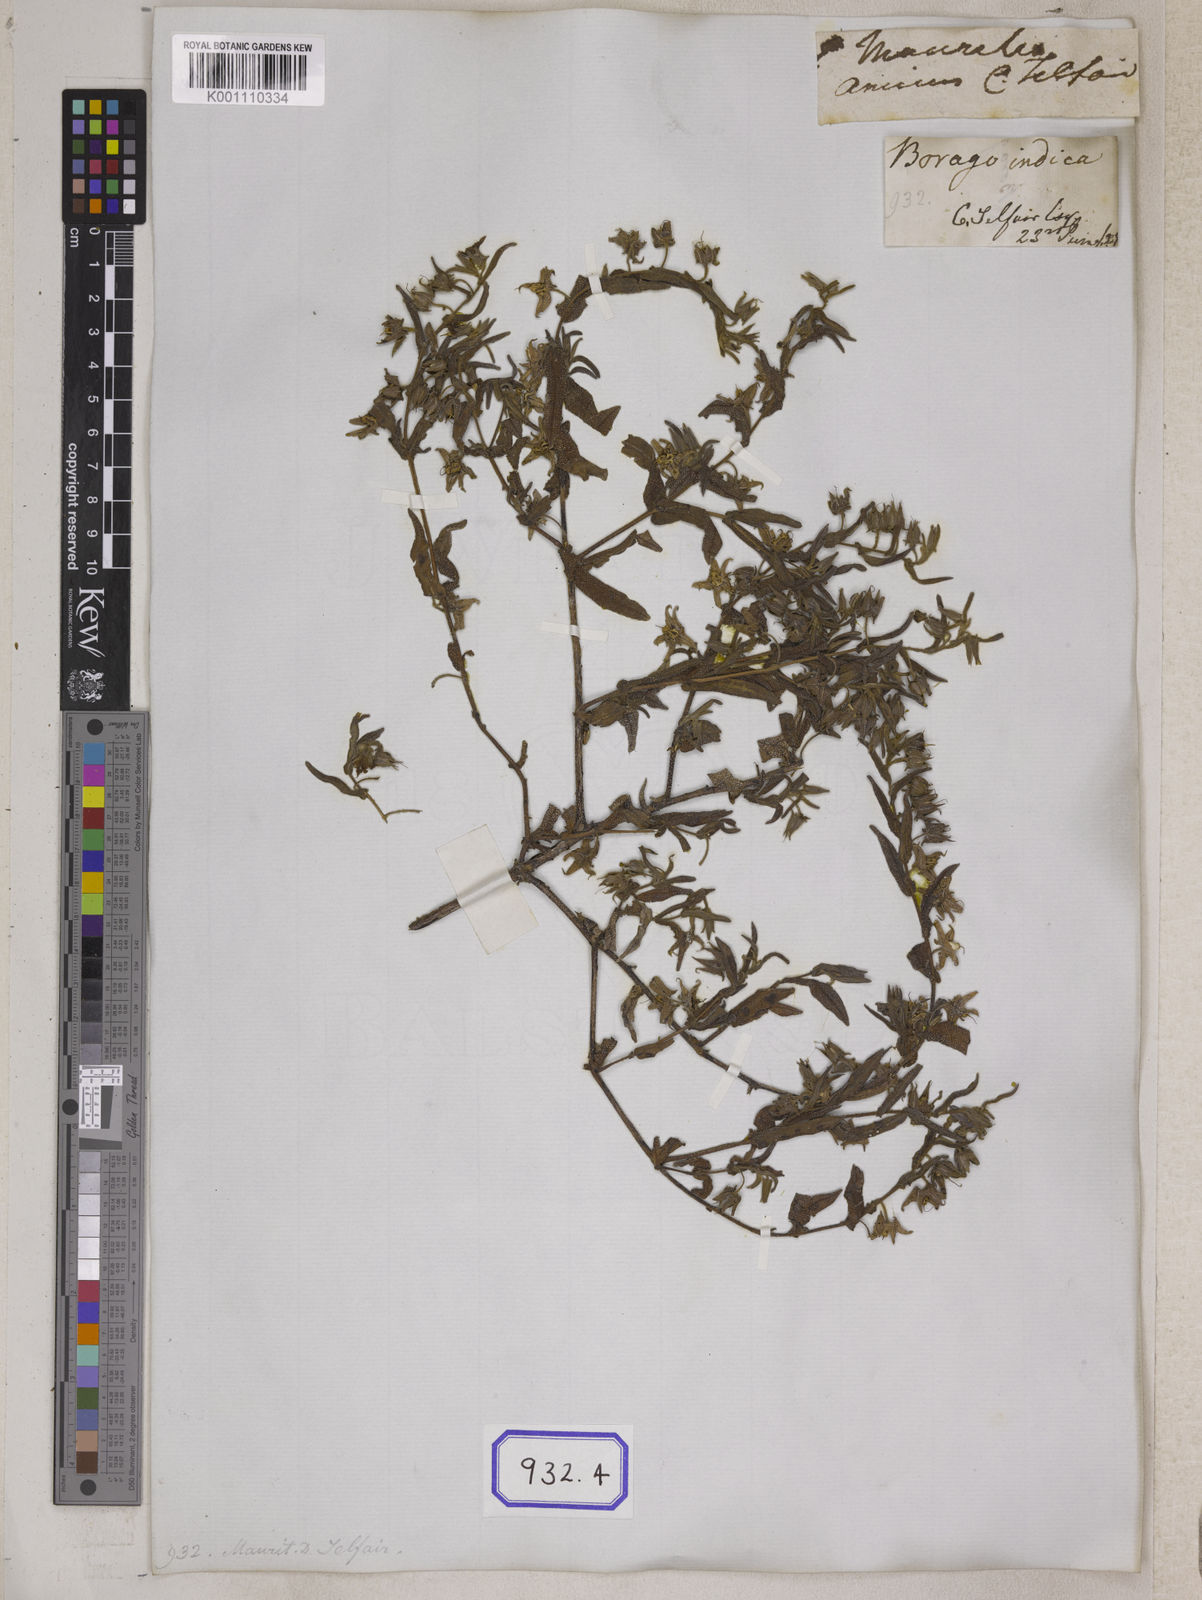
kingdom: Plantae
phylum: Tracheophyta
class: Magnoliopsida
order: Boraginales
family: Boraginaceae
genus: Trichodesma
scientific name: Trichodesma
